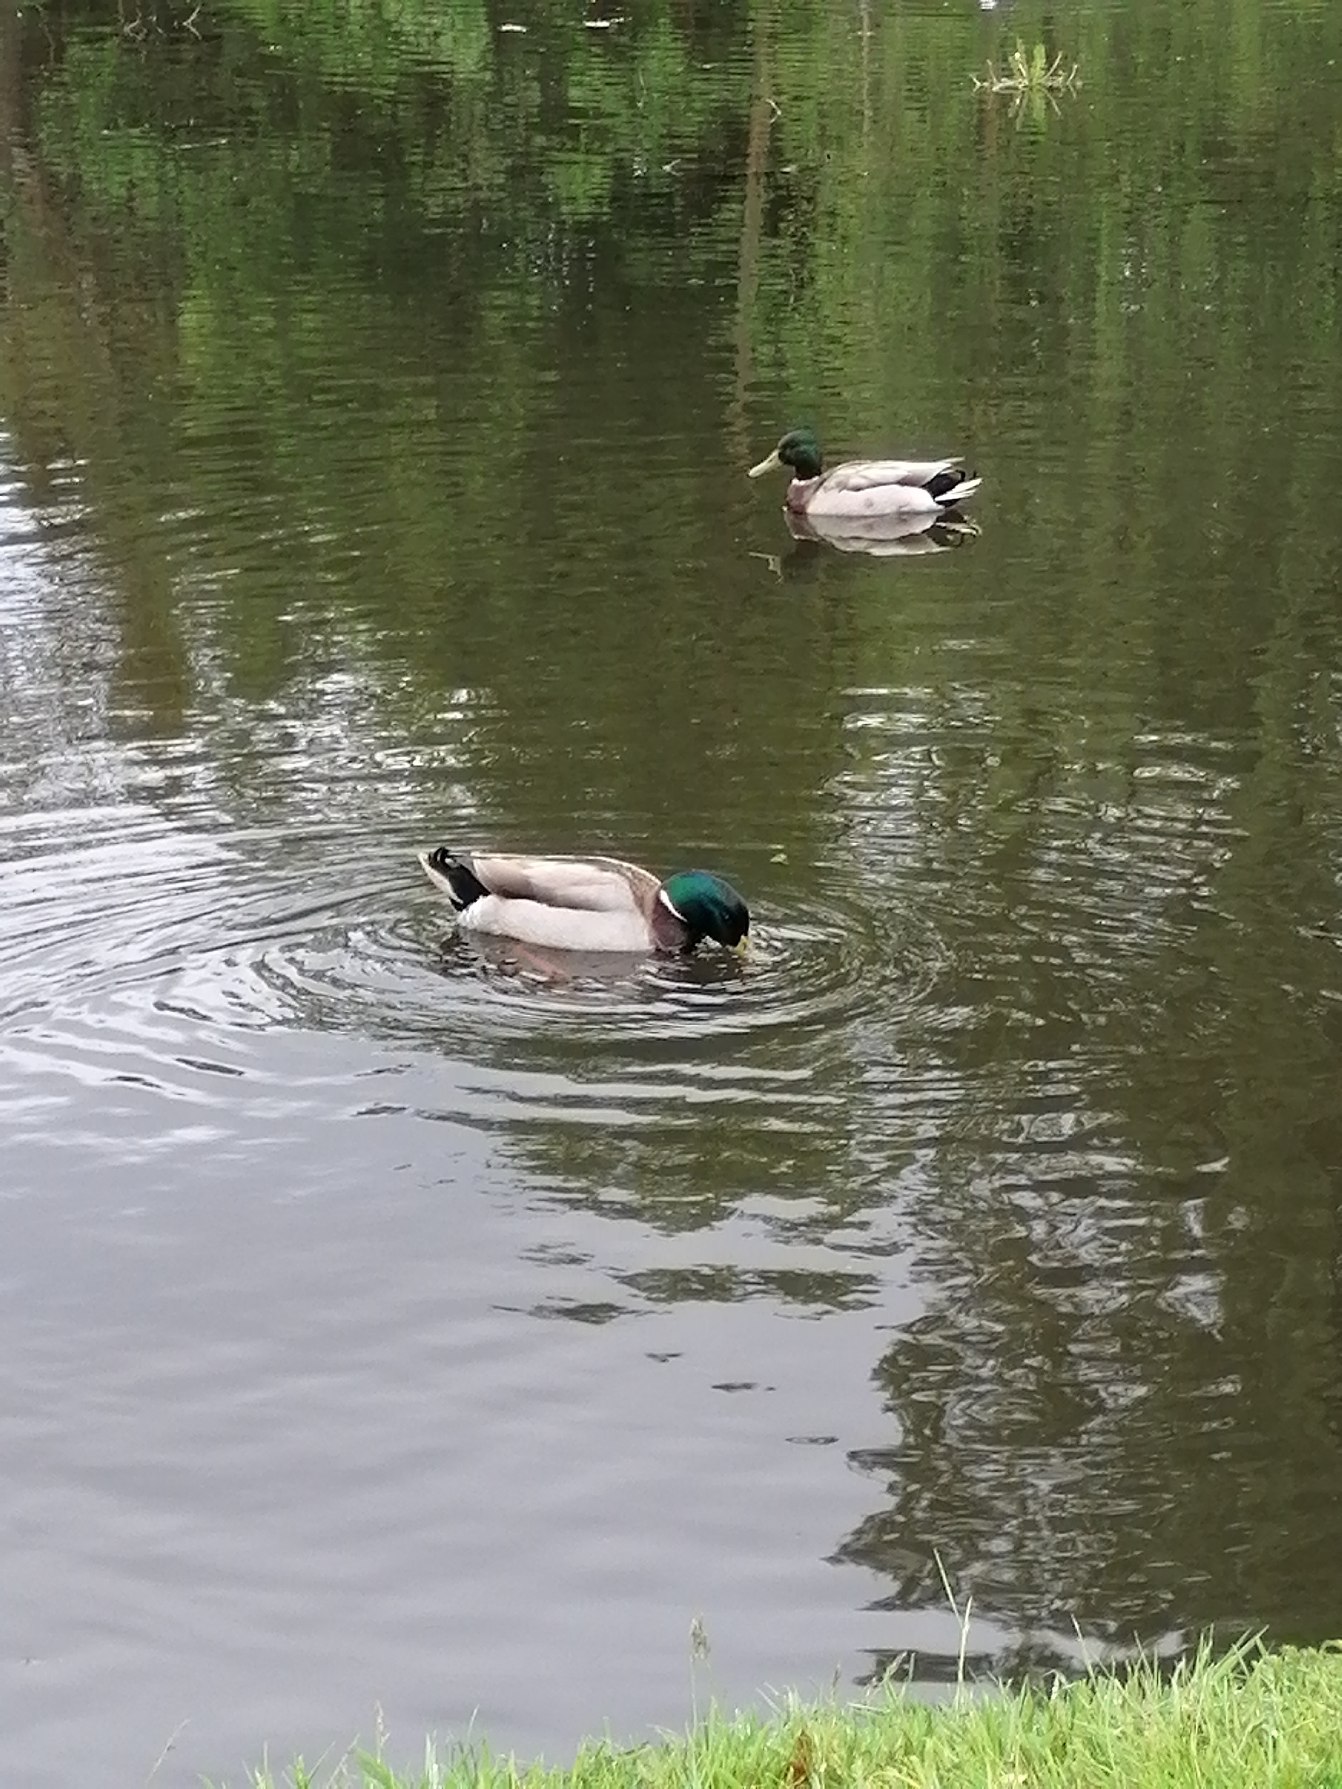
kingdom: Animalia
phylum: Chordata
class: Aves
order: Anseriformes
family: Anatidae
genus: Anas
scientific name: Anas platyrhynchos
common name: Gråand
